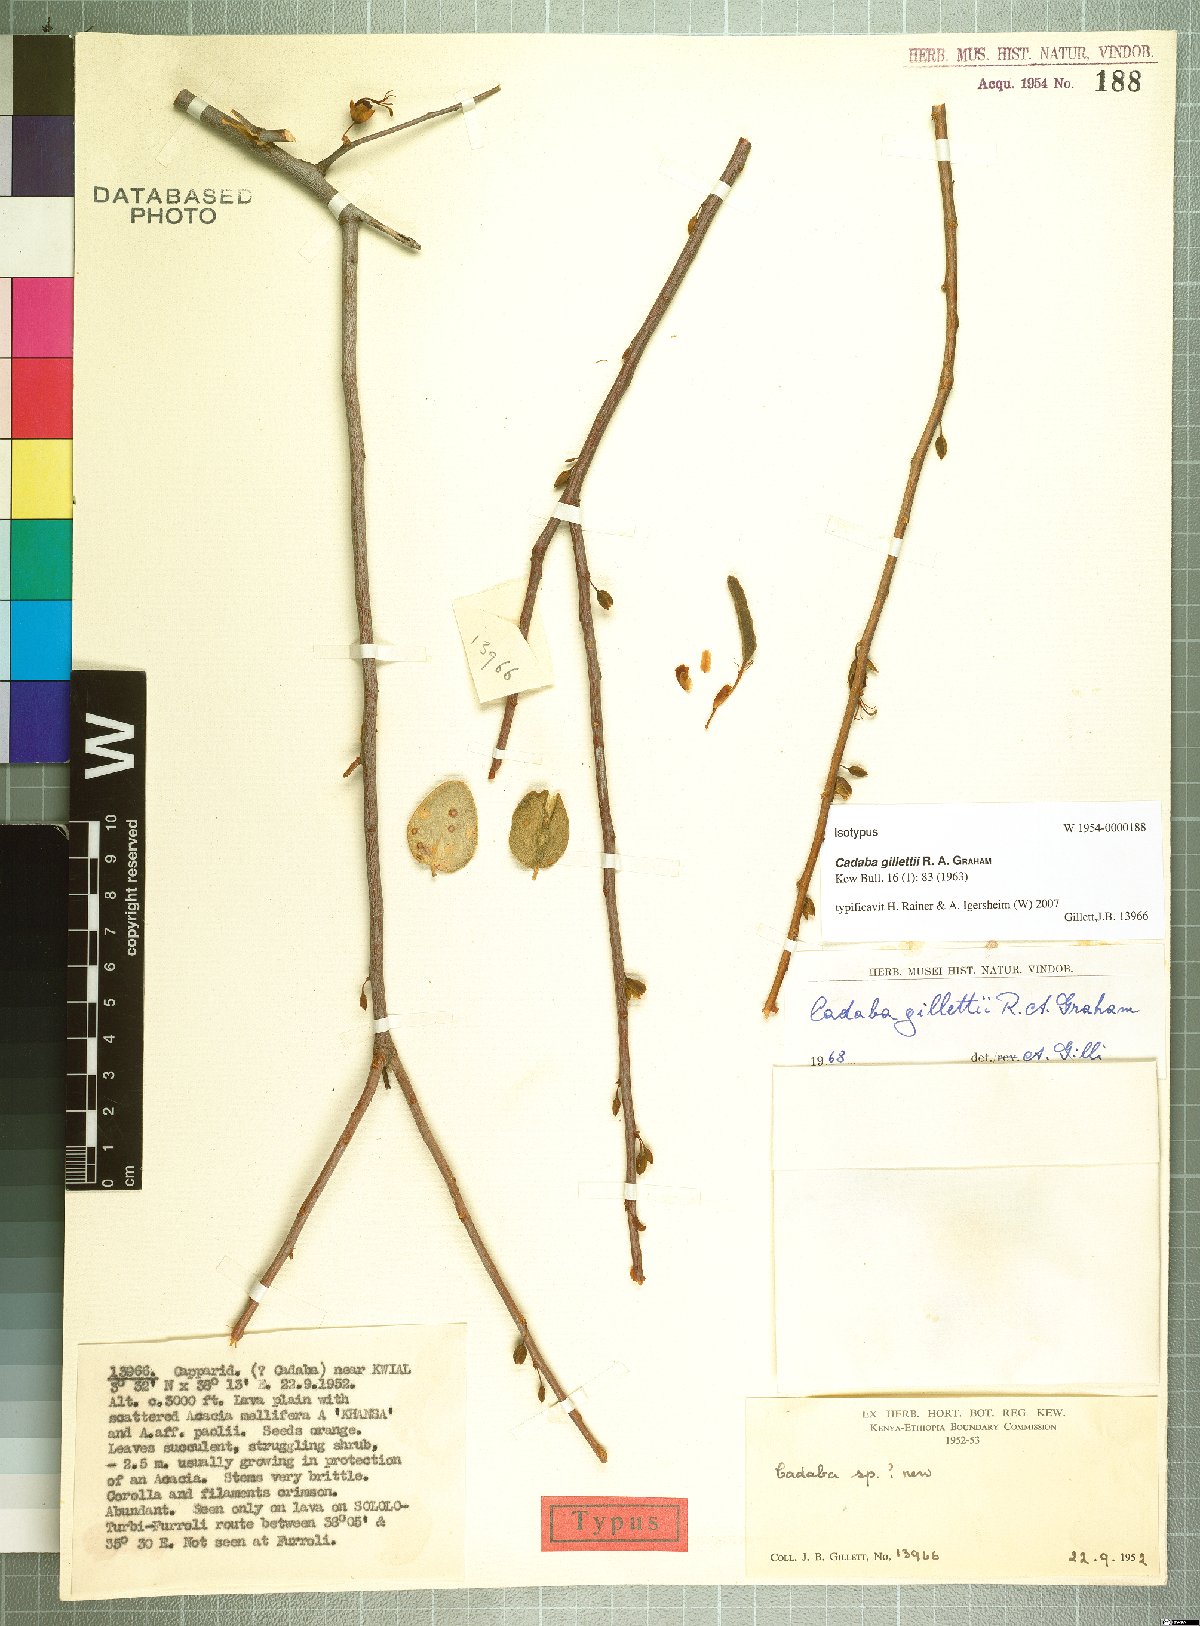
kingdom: Plantae
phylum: Tracheophyta
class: Magnoliopsida
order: Brassicales
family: Capparaceae
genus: Cadaba
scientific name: Cadaba gillettii
